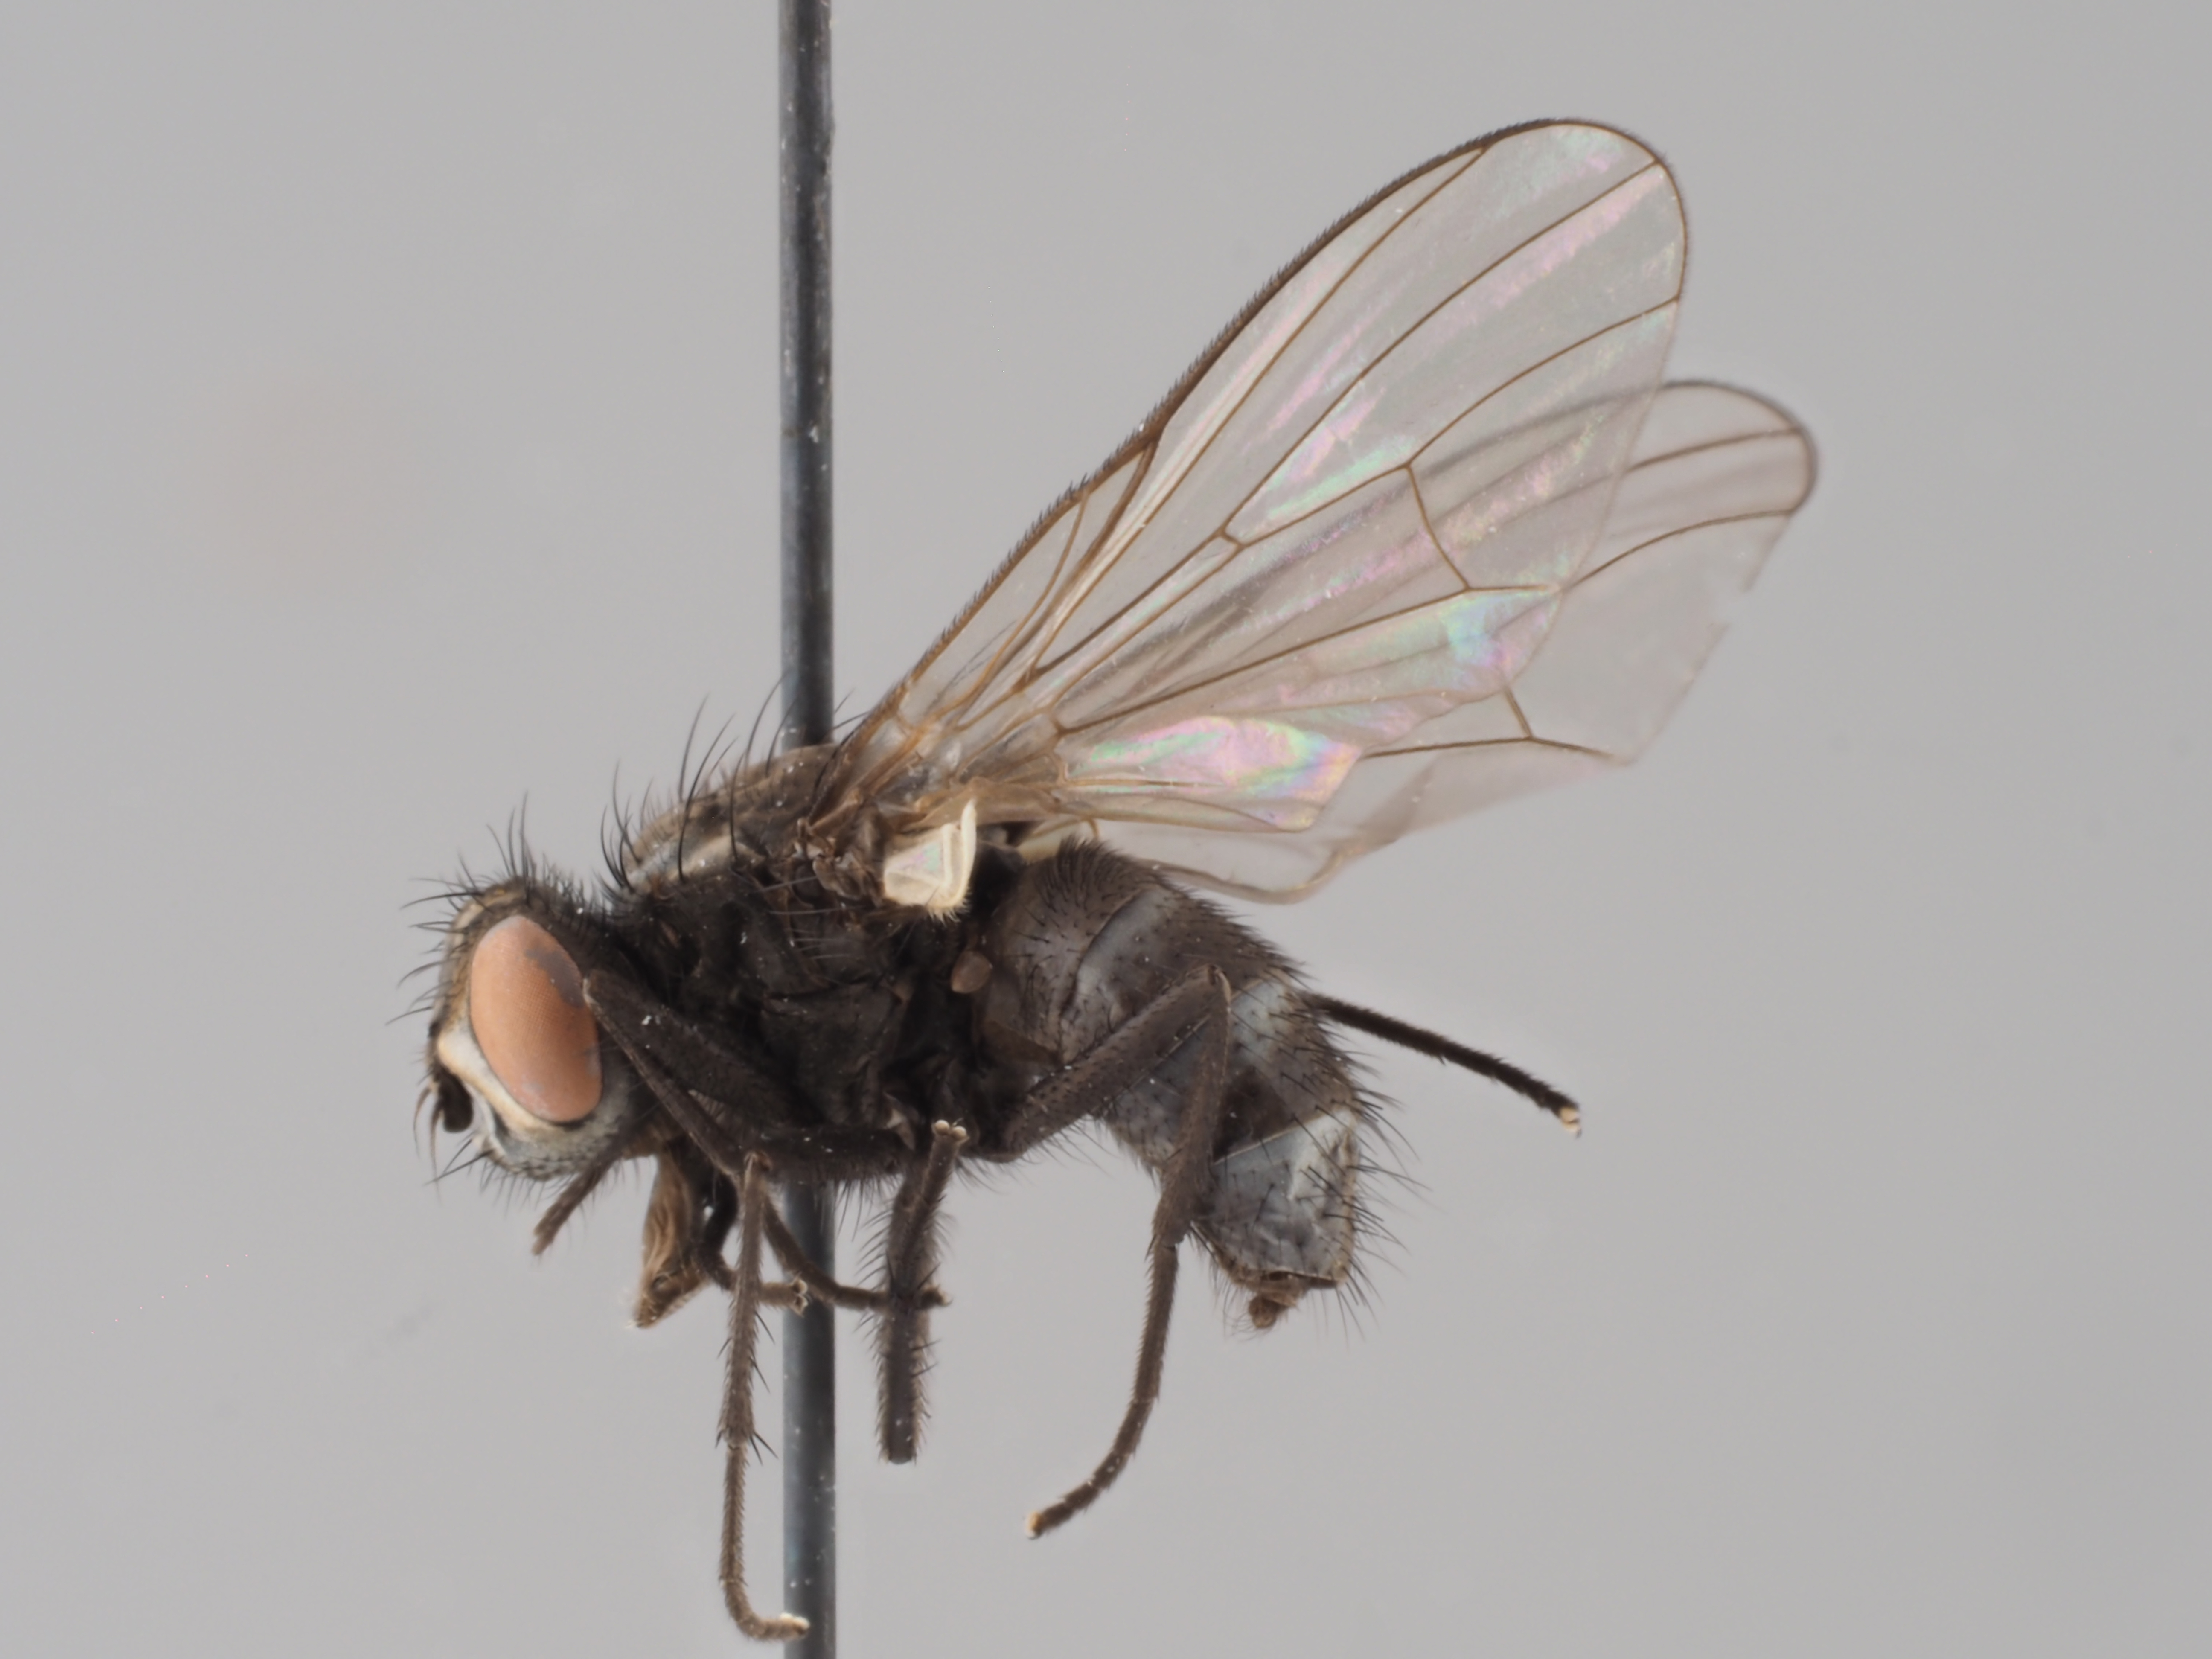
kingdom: Animalia
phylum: Arthropoda
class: Insecta
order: Diptera
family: Muscidae
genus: Spilogona
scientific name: Spilogona tranguligera
